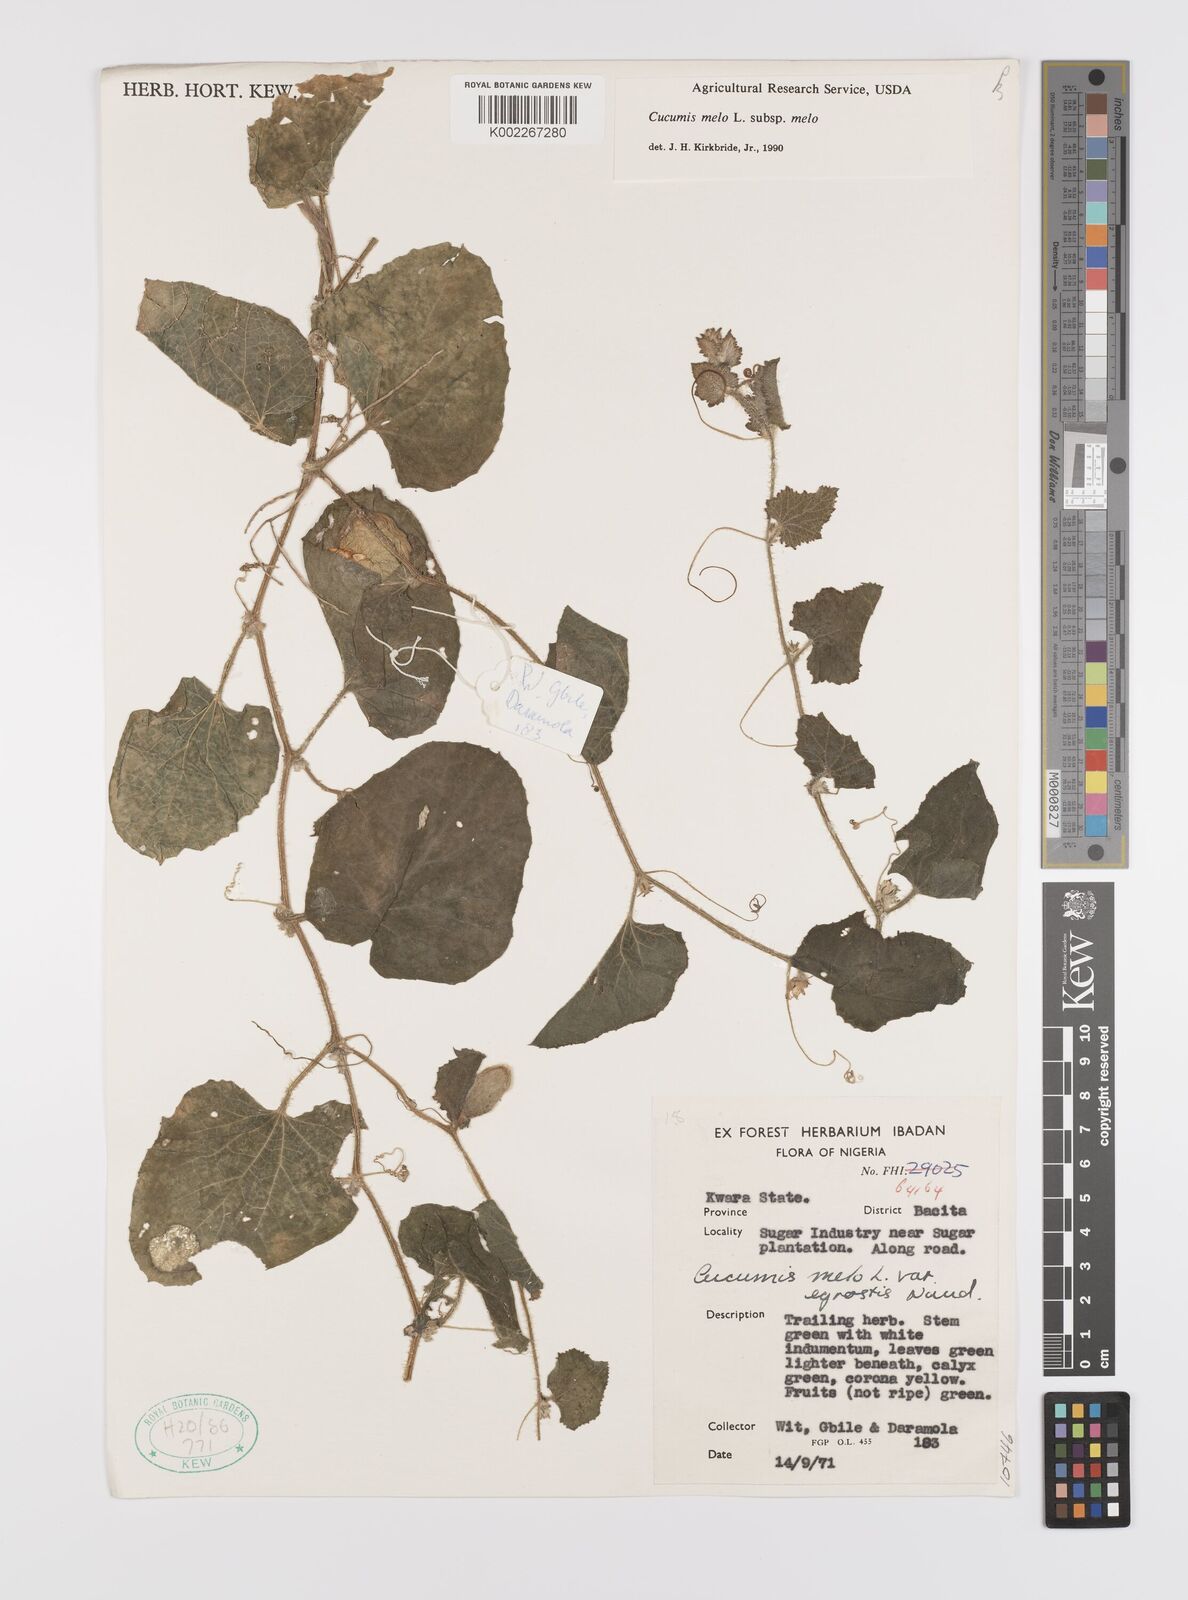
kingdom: Plantae
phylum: Tracheophyta
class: Magnoliopsida
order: Cucurbitales
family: Cucurbitaceae
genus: Cucumis
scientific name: Cucumis melo
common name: Melon
